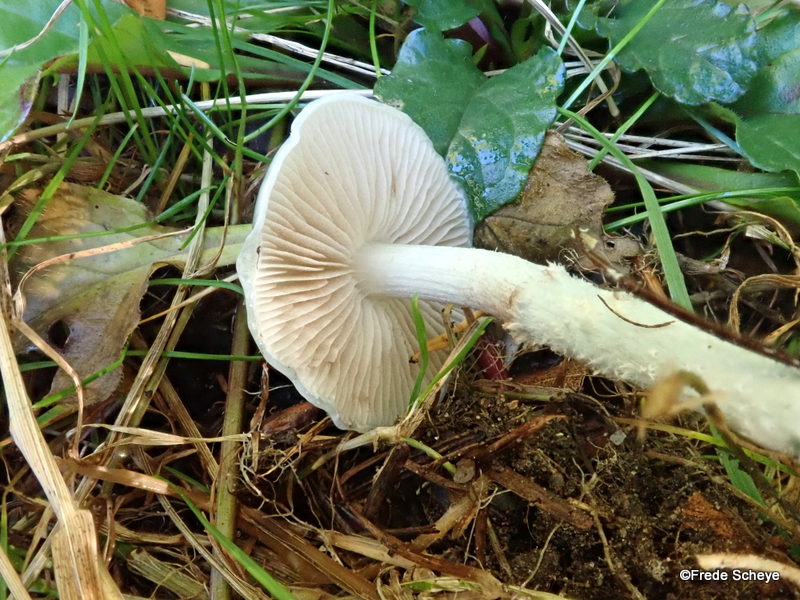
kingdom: Fungi
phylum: Basidiomycota
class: Agaricomycetes
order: Agaricales
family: Strophariaceae
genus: Stropharia
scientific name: Stropharia cyanea
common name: blågrøn bredblad
